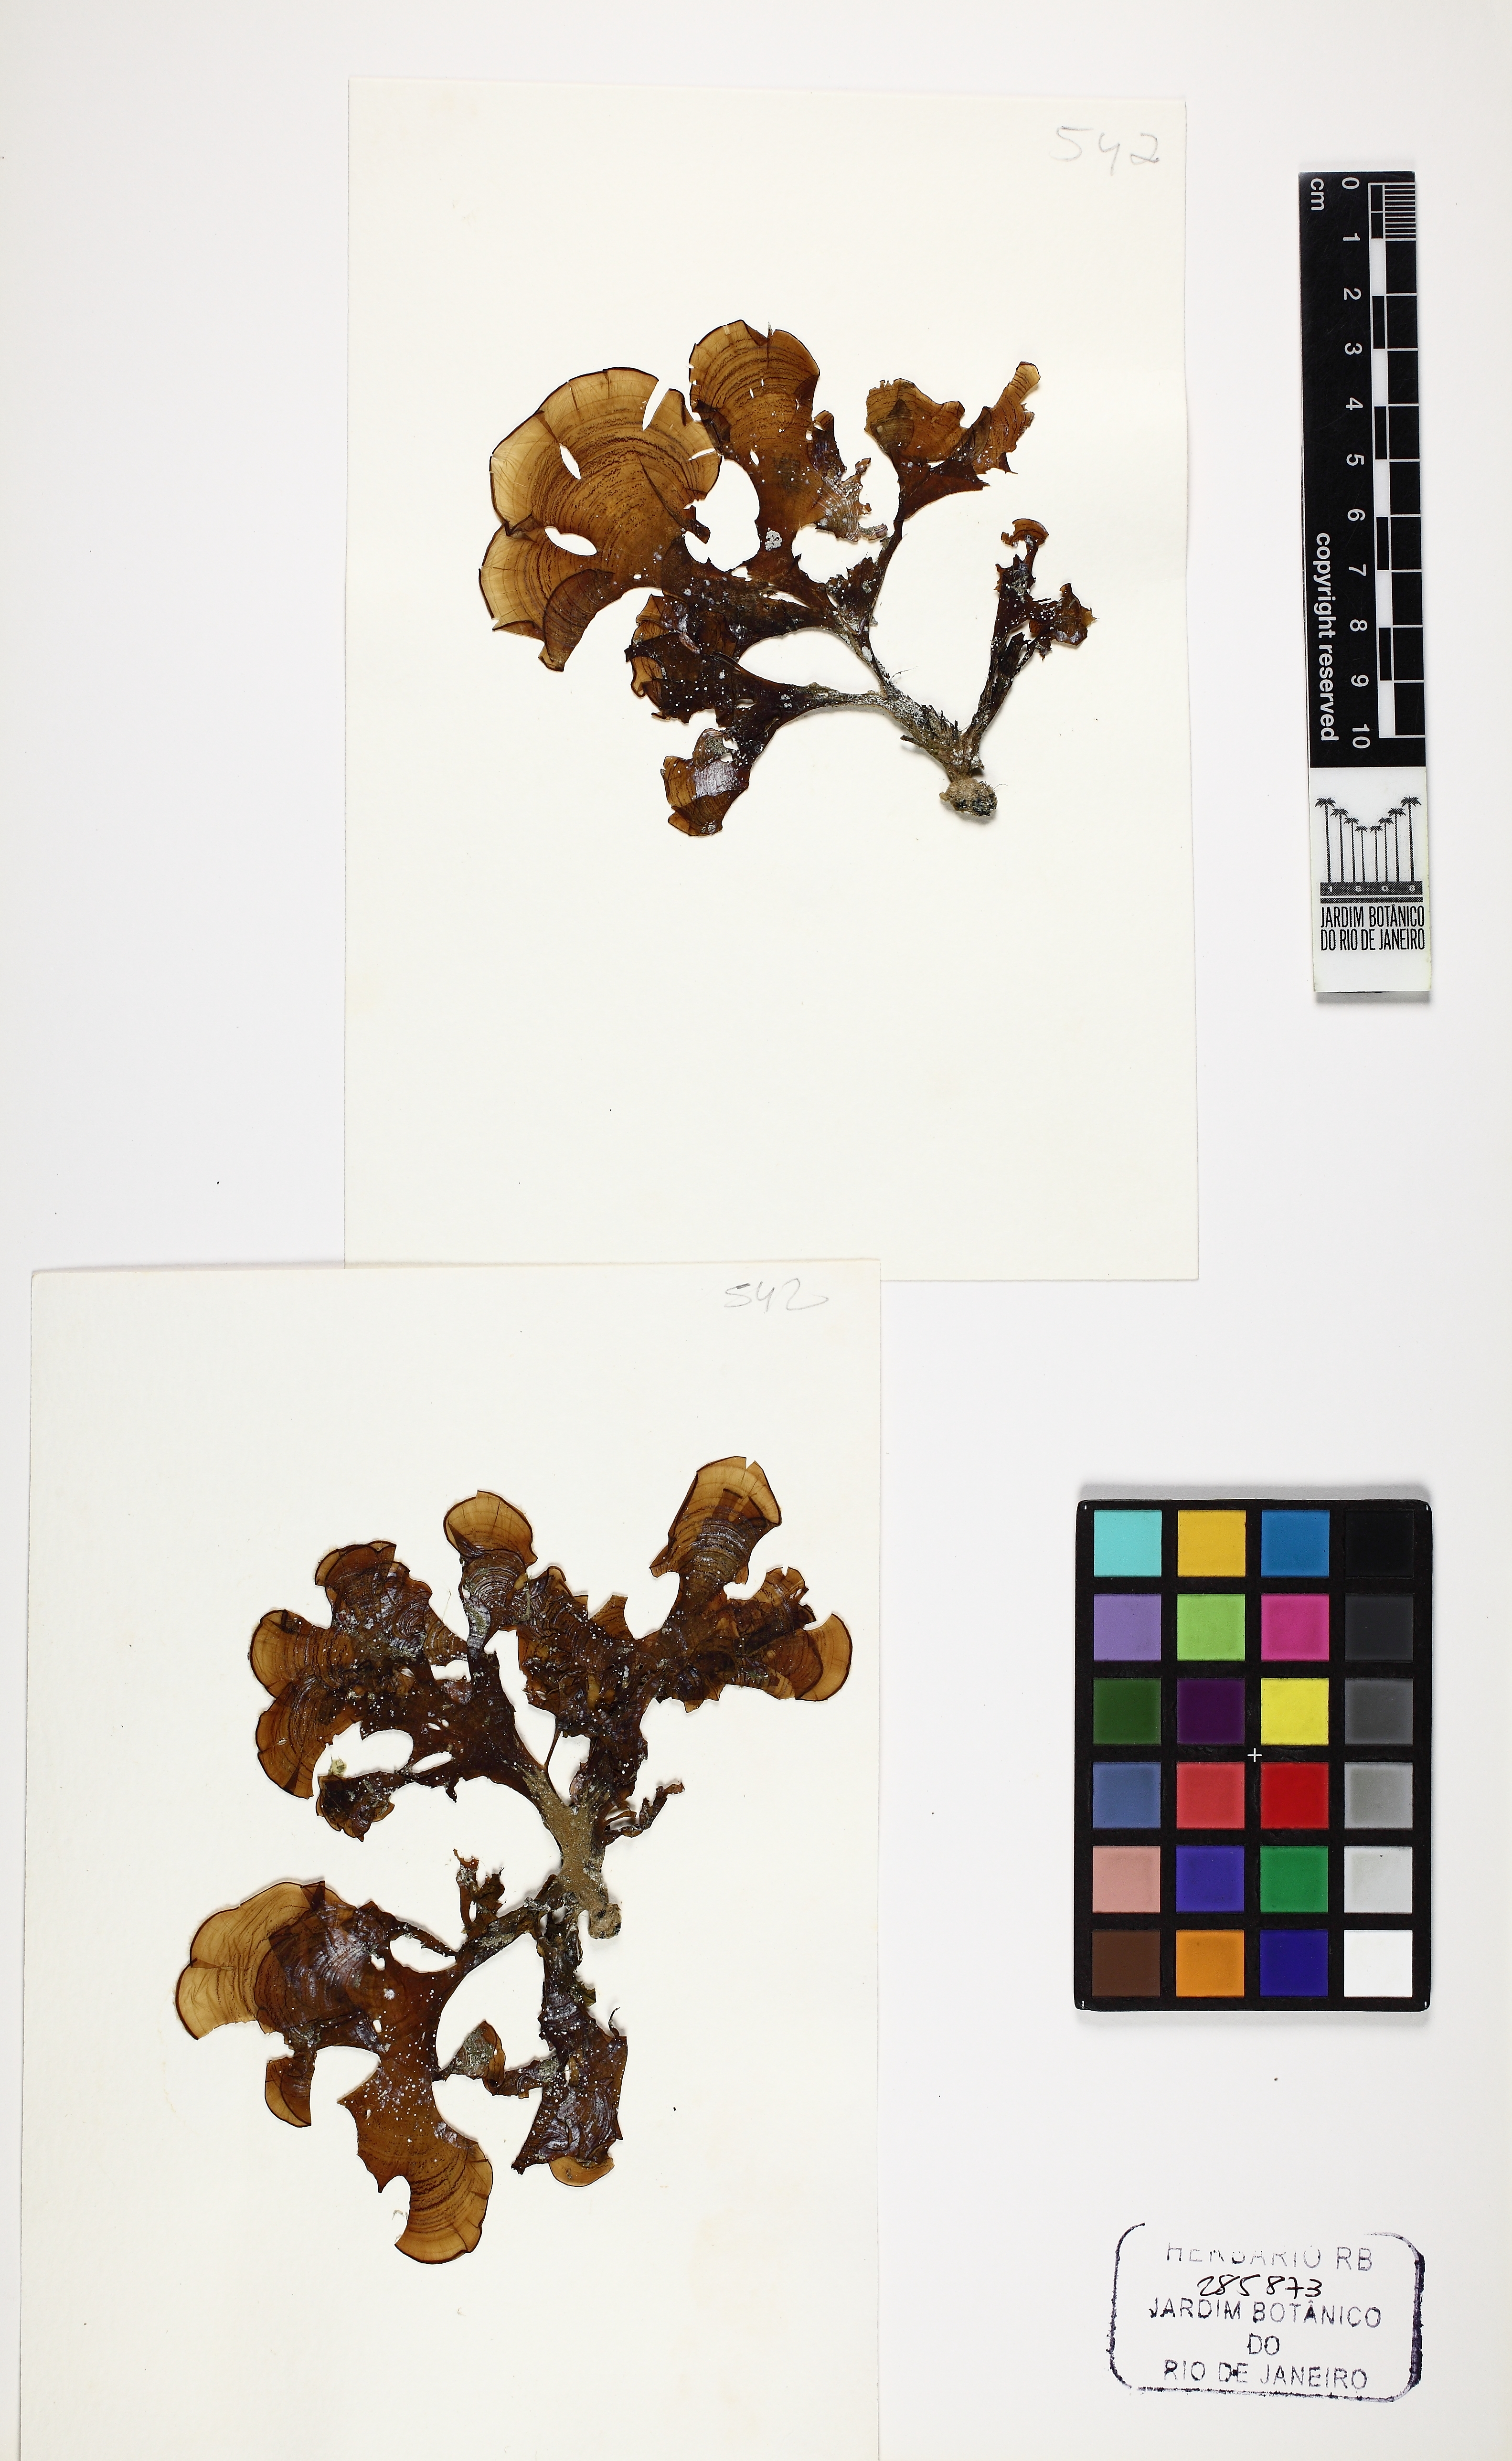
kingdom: Chromista
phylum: Ochrophyta
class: Phaeophyceae
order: Dictyotales
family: Dictyotaceae
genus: Padina
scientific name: Padina gymnospora
